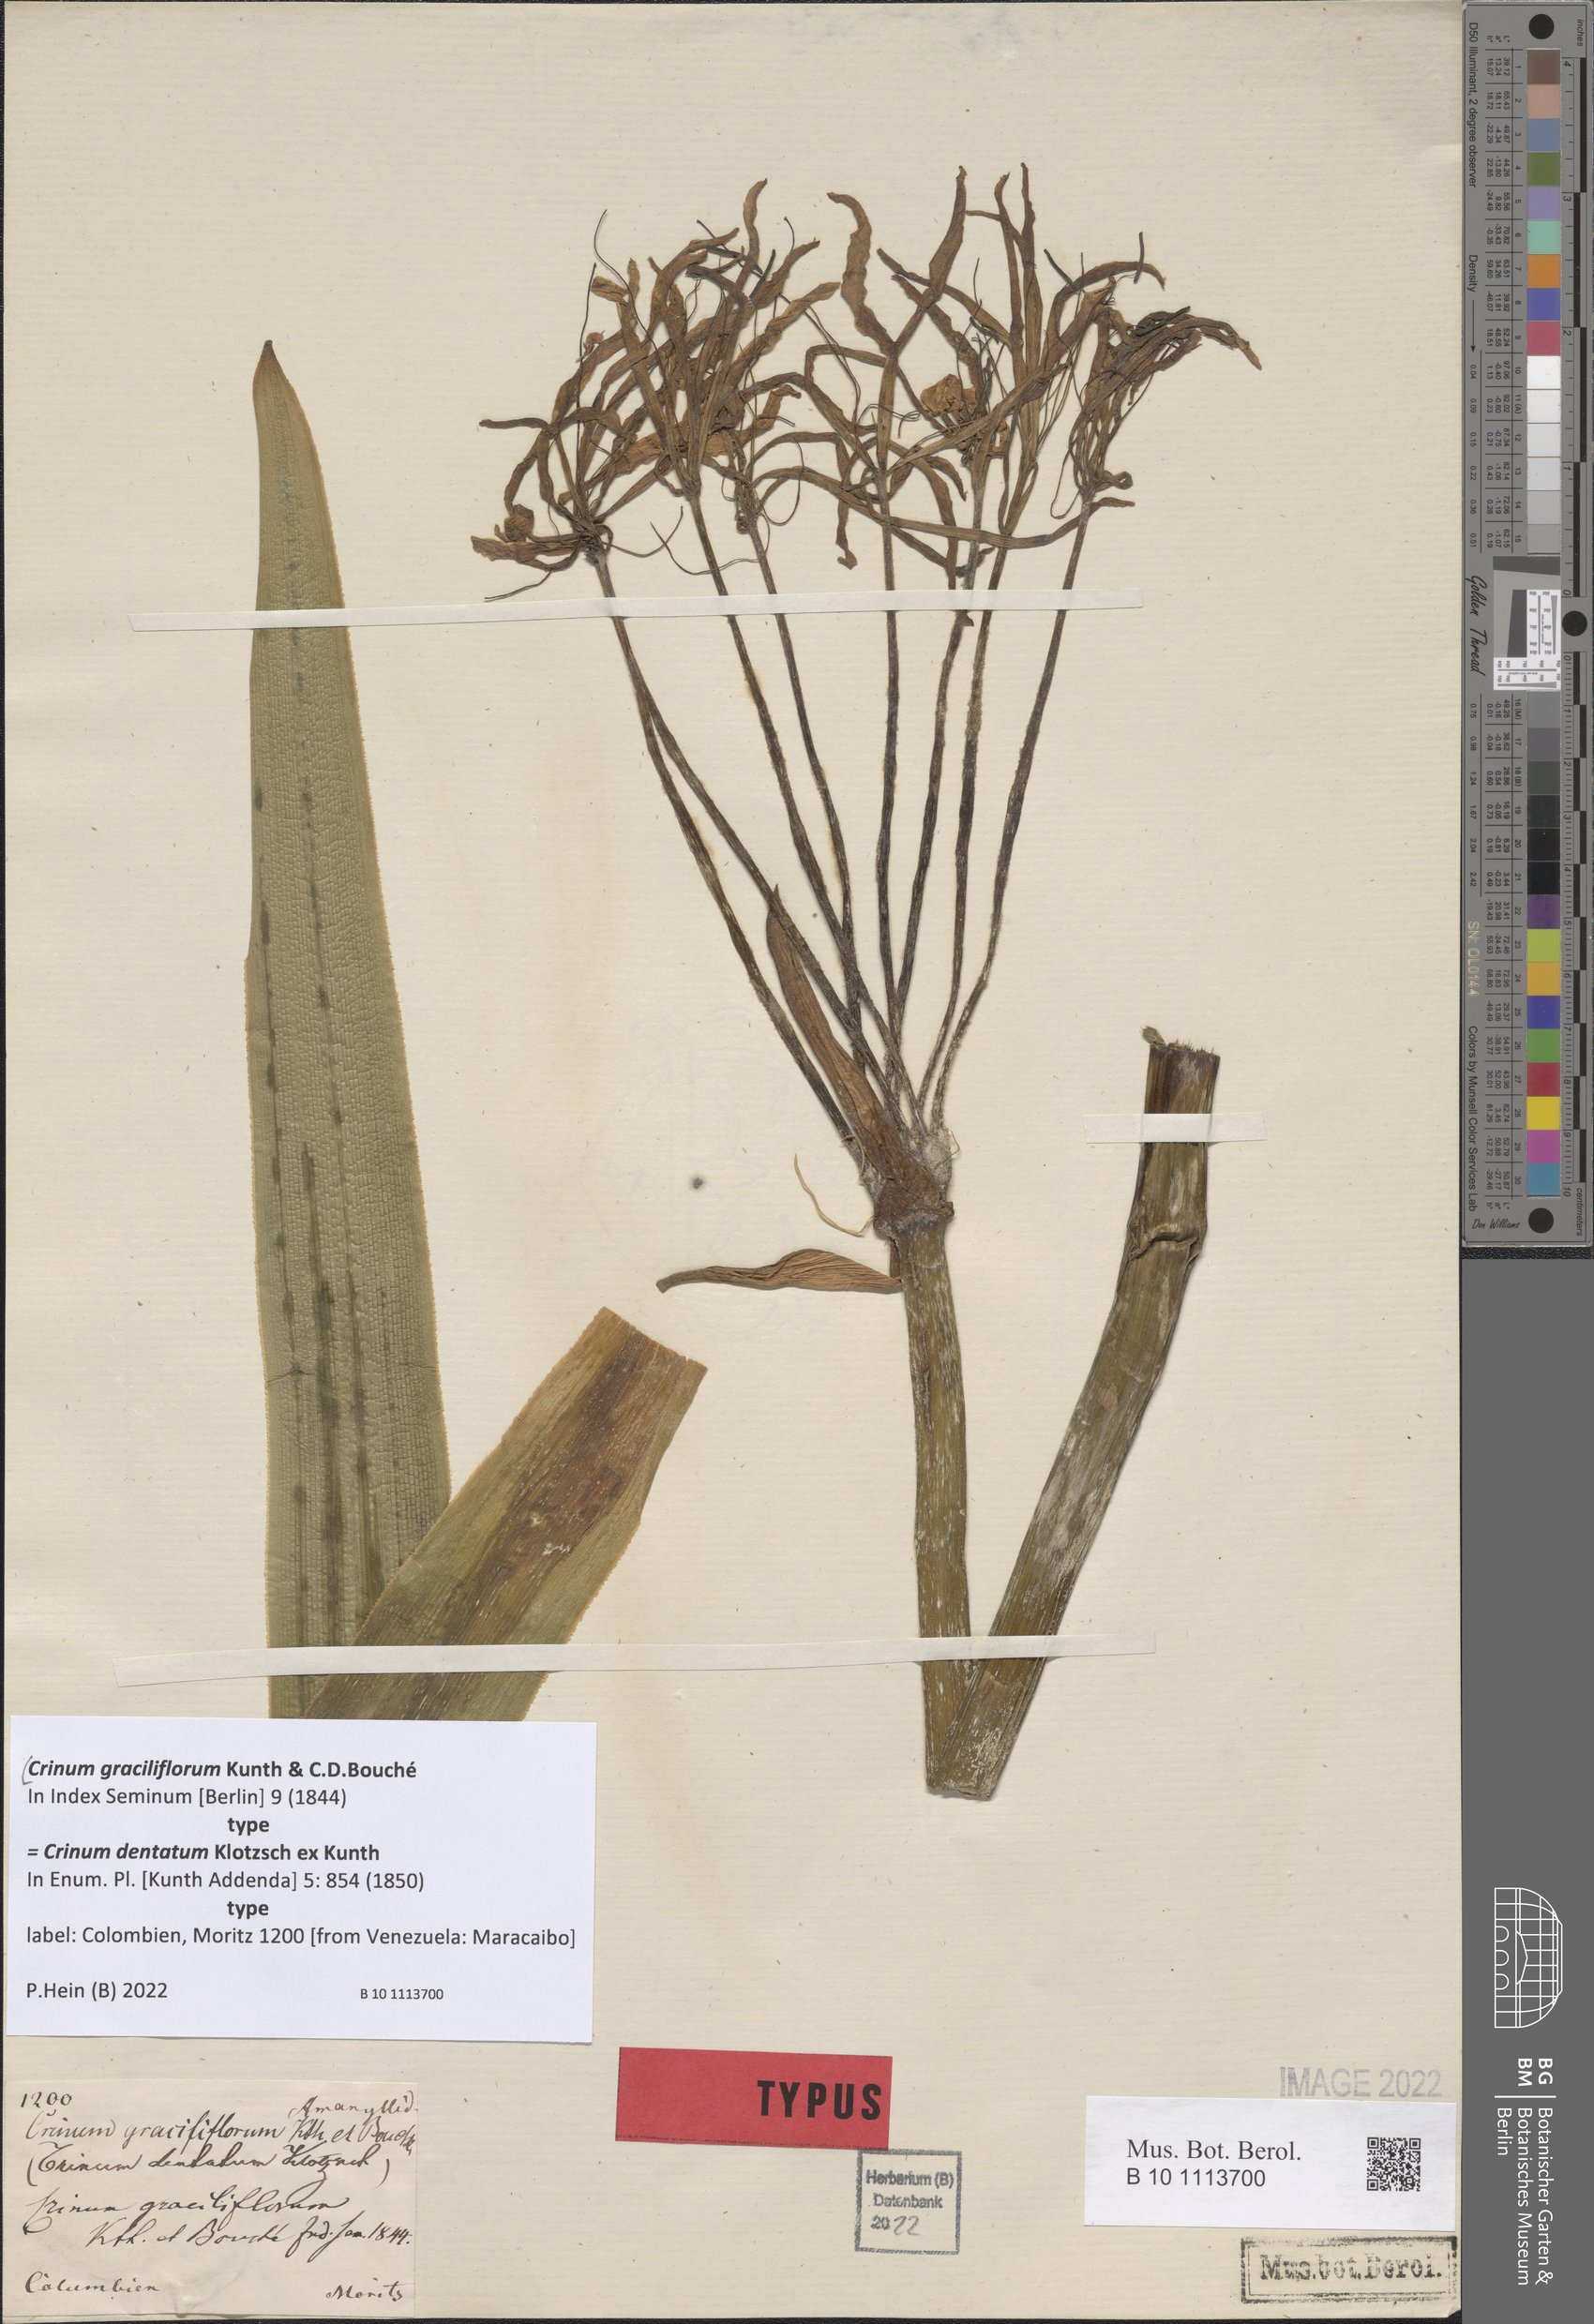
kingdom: Plantae
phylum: Tracheophyta
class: Liliopsida
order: Asparagales
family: Amaryllidaceae
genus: Crinum
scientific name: Crinum graciliflorum
